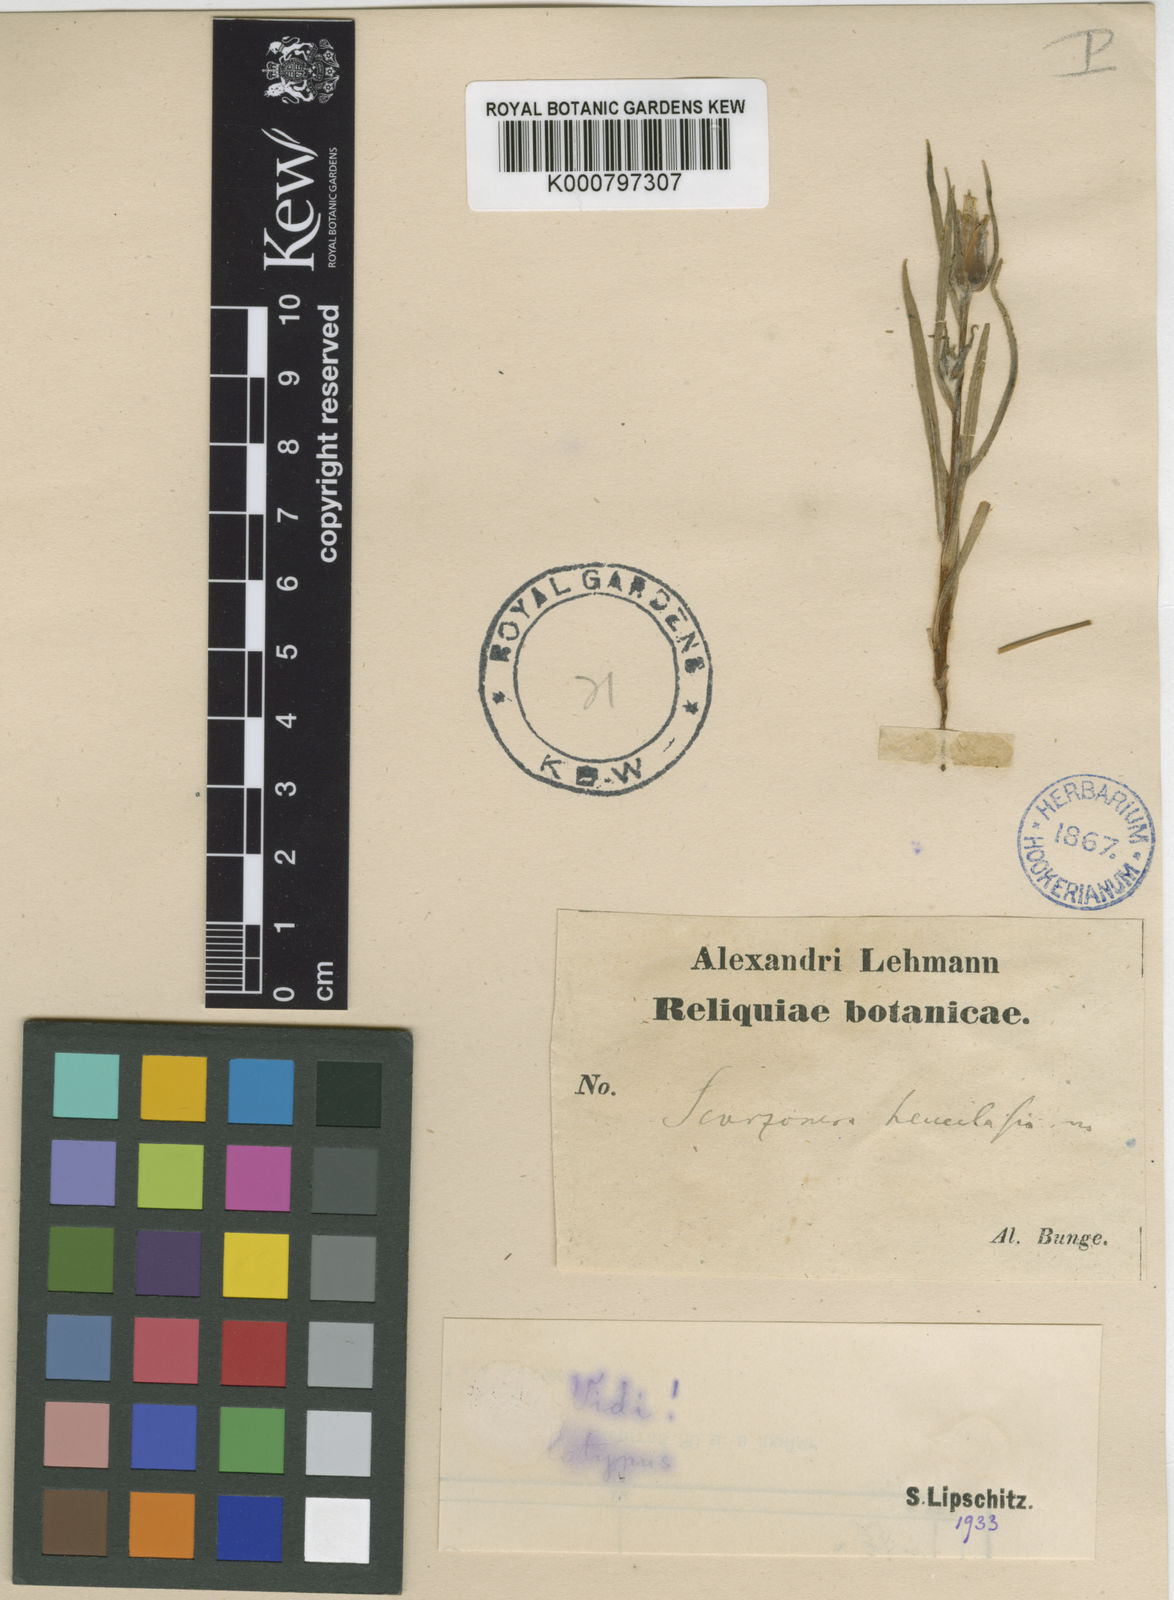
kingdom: Plantae
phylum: Tracheophyta
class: Magnoliopsida
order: Asterales
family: Asteraceae
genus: Epilasia
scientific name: Epilasia
